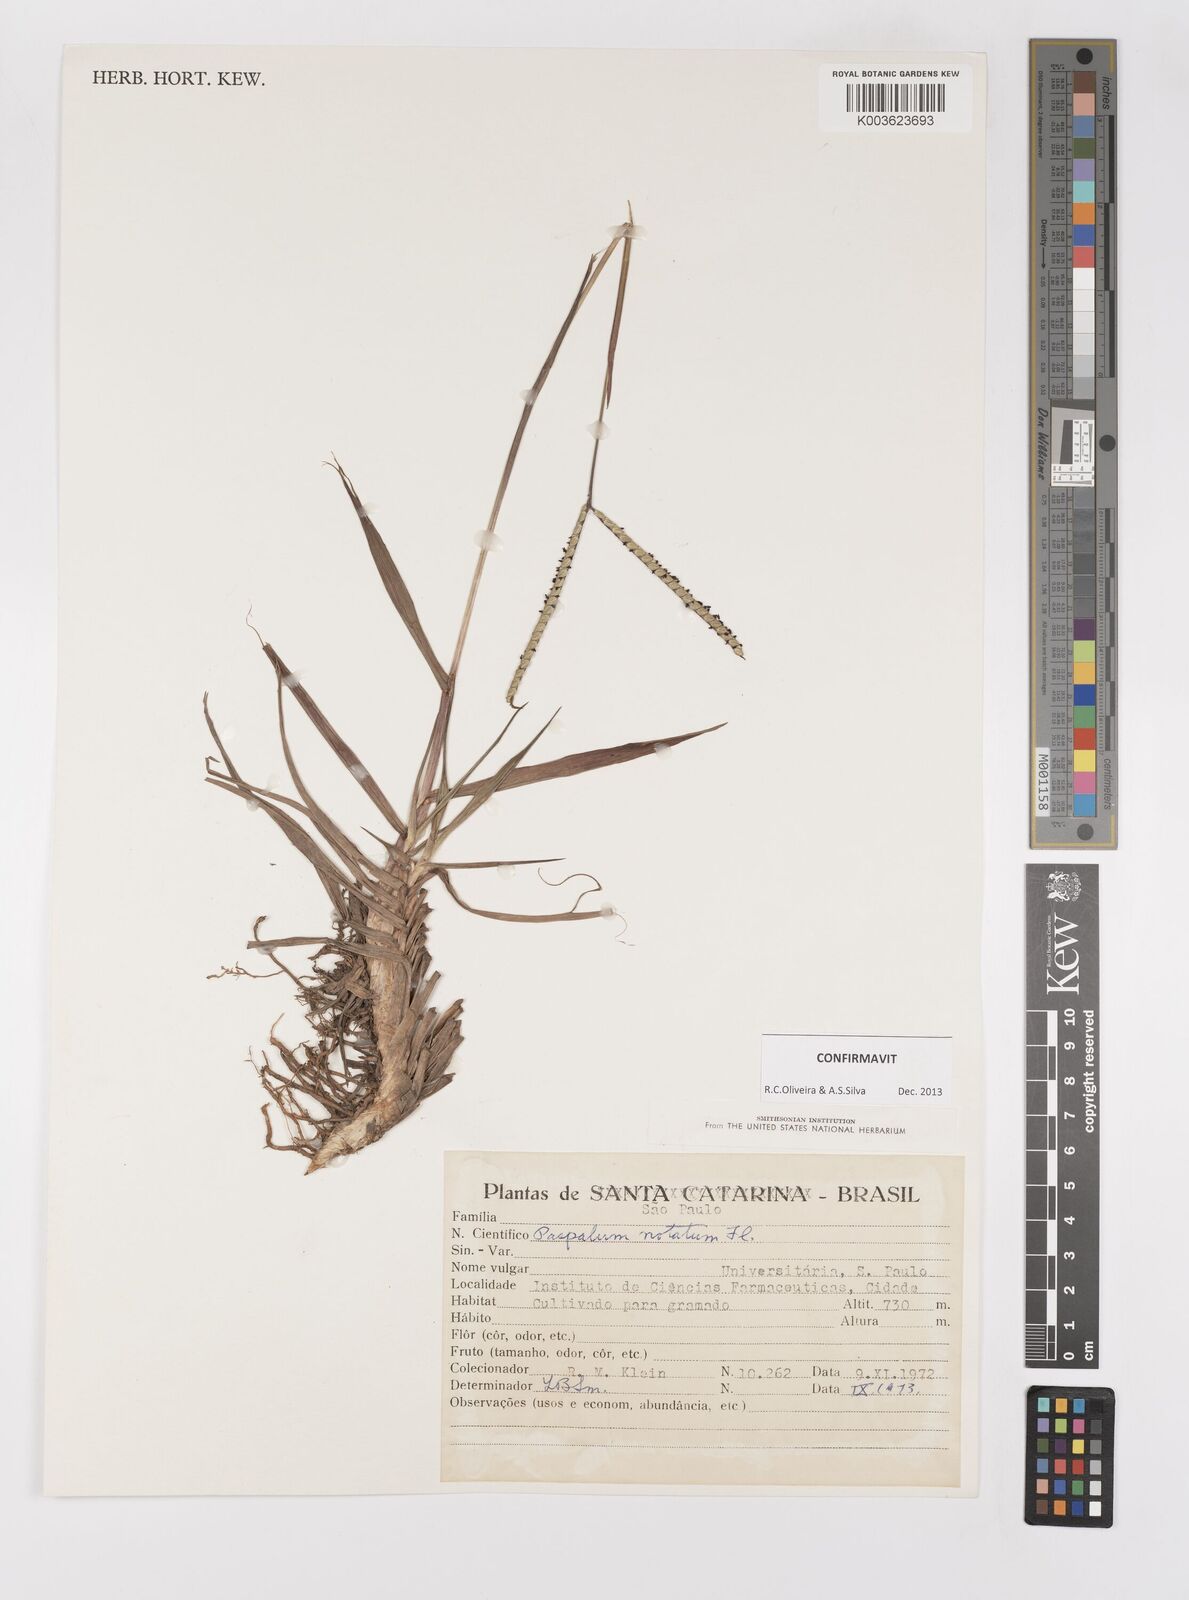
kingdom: Plantae
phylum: Tracheophyta
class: Liliopsida
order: Poales
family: Poaceae
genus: Paspalum
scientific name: Paspalum notatum
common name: Bahiagrass
